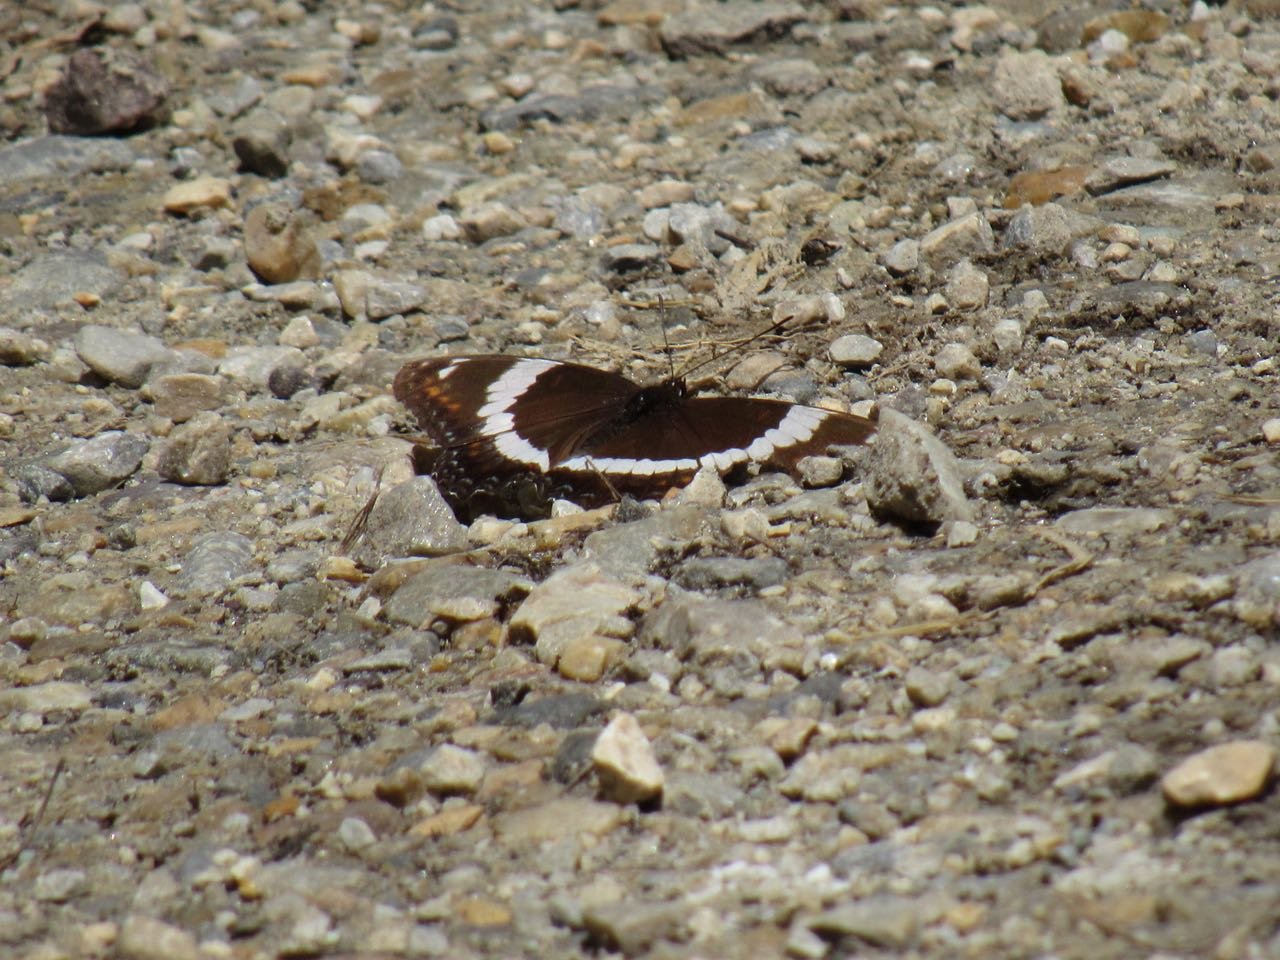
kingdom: Animalia
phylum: Arthropoda
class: Insecta
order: Lepidoptera
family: Nymphalidae
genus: Limenitis
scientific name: Limenitis arthemis
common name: Red-spotted Admiral
